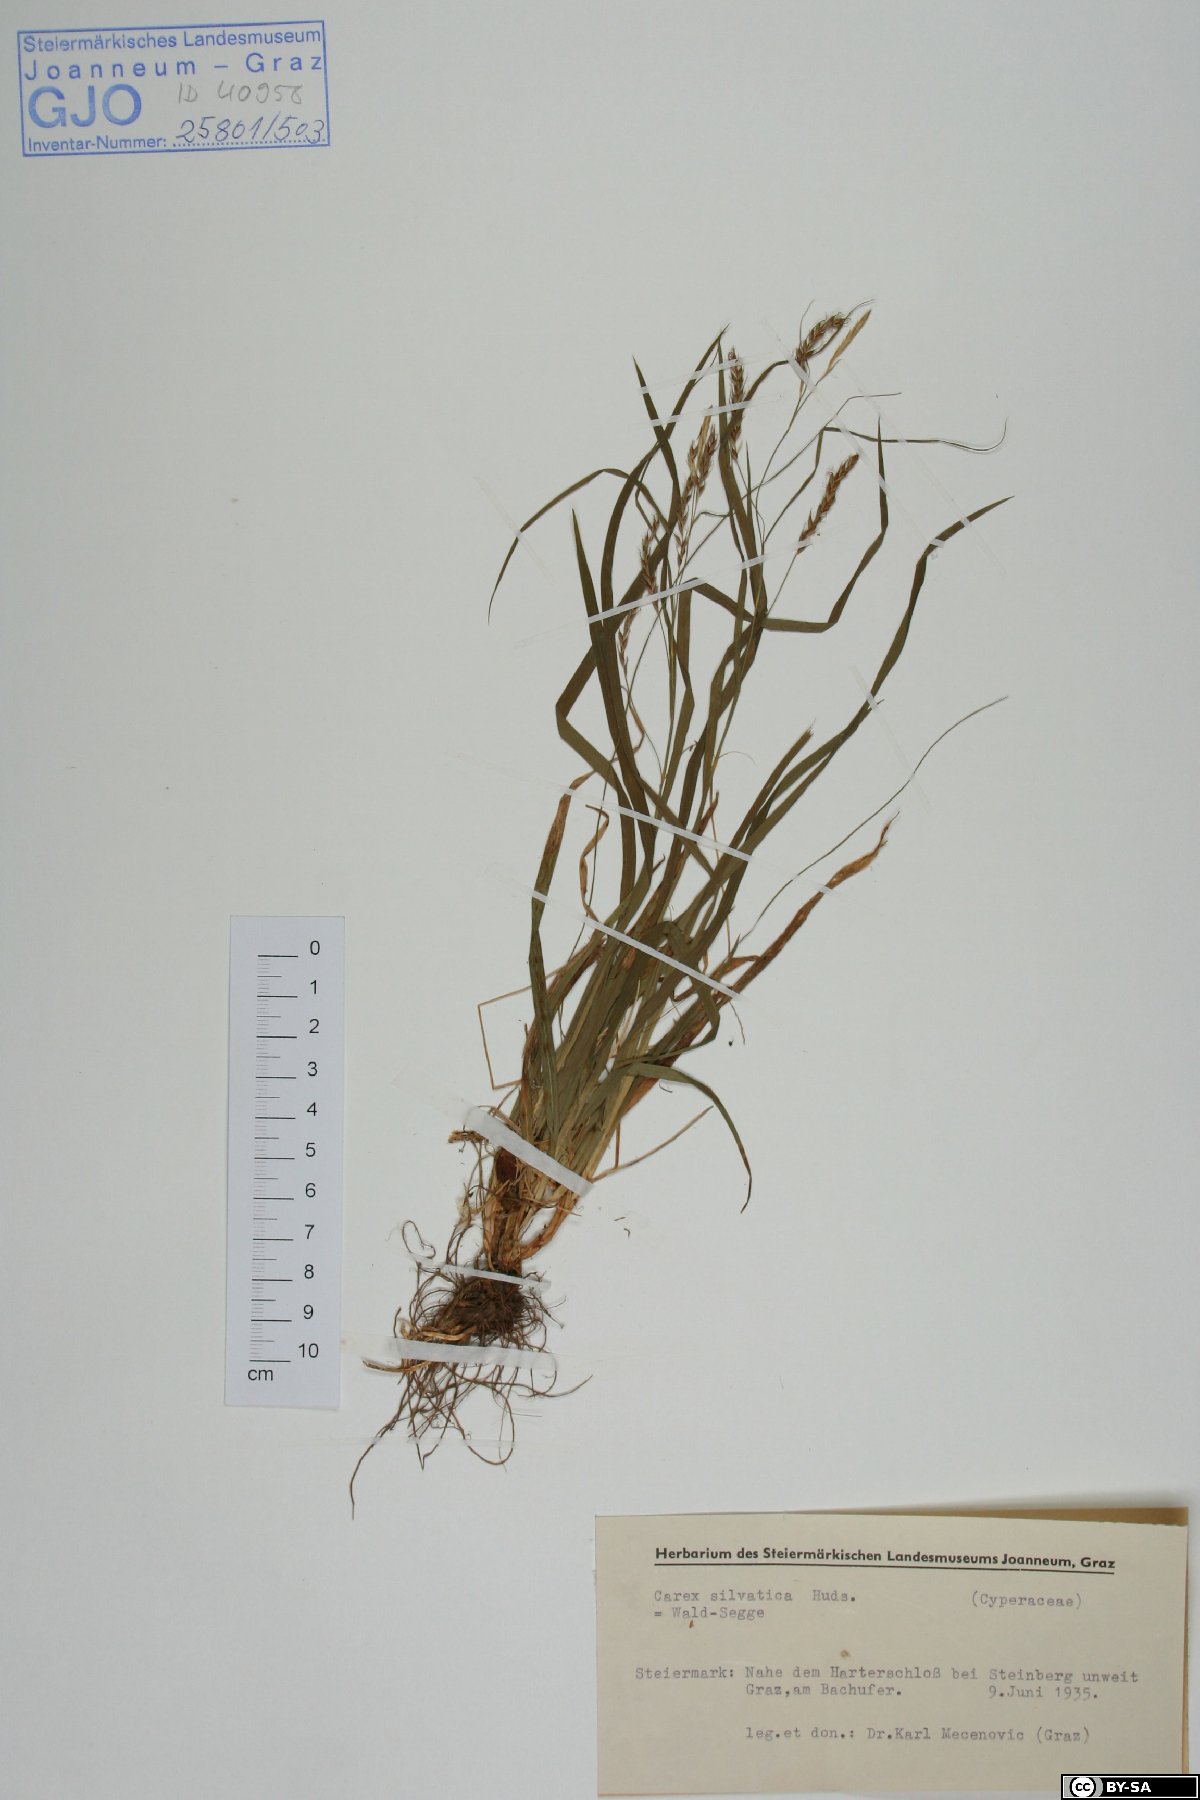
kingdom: Plantae
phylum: Tracheophyta
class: Liliopsida
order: Poales
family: Cyperaceae
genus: Carex
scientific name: Carex sylvatica
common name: Wood-sedge
